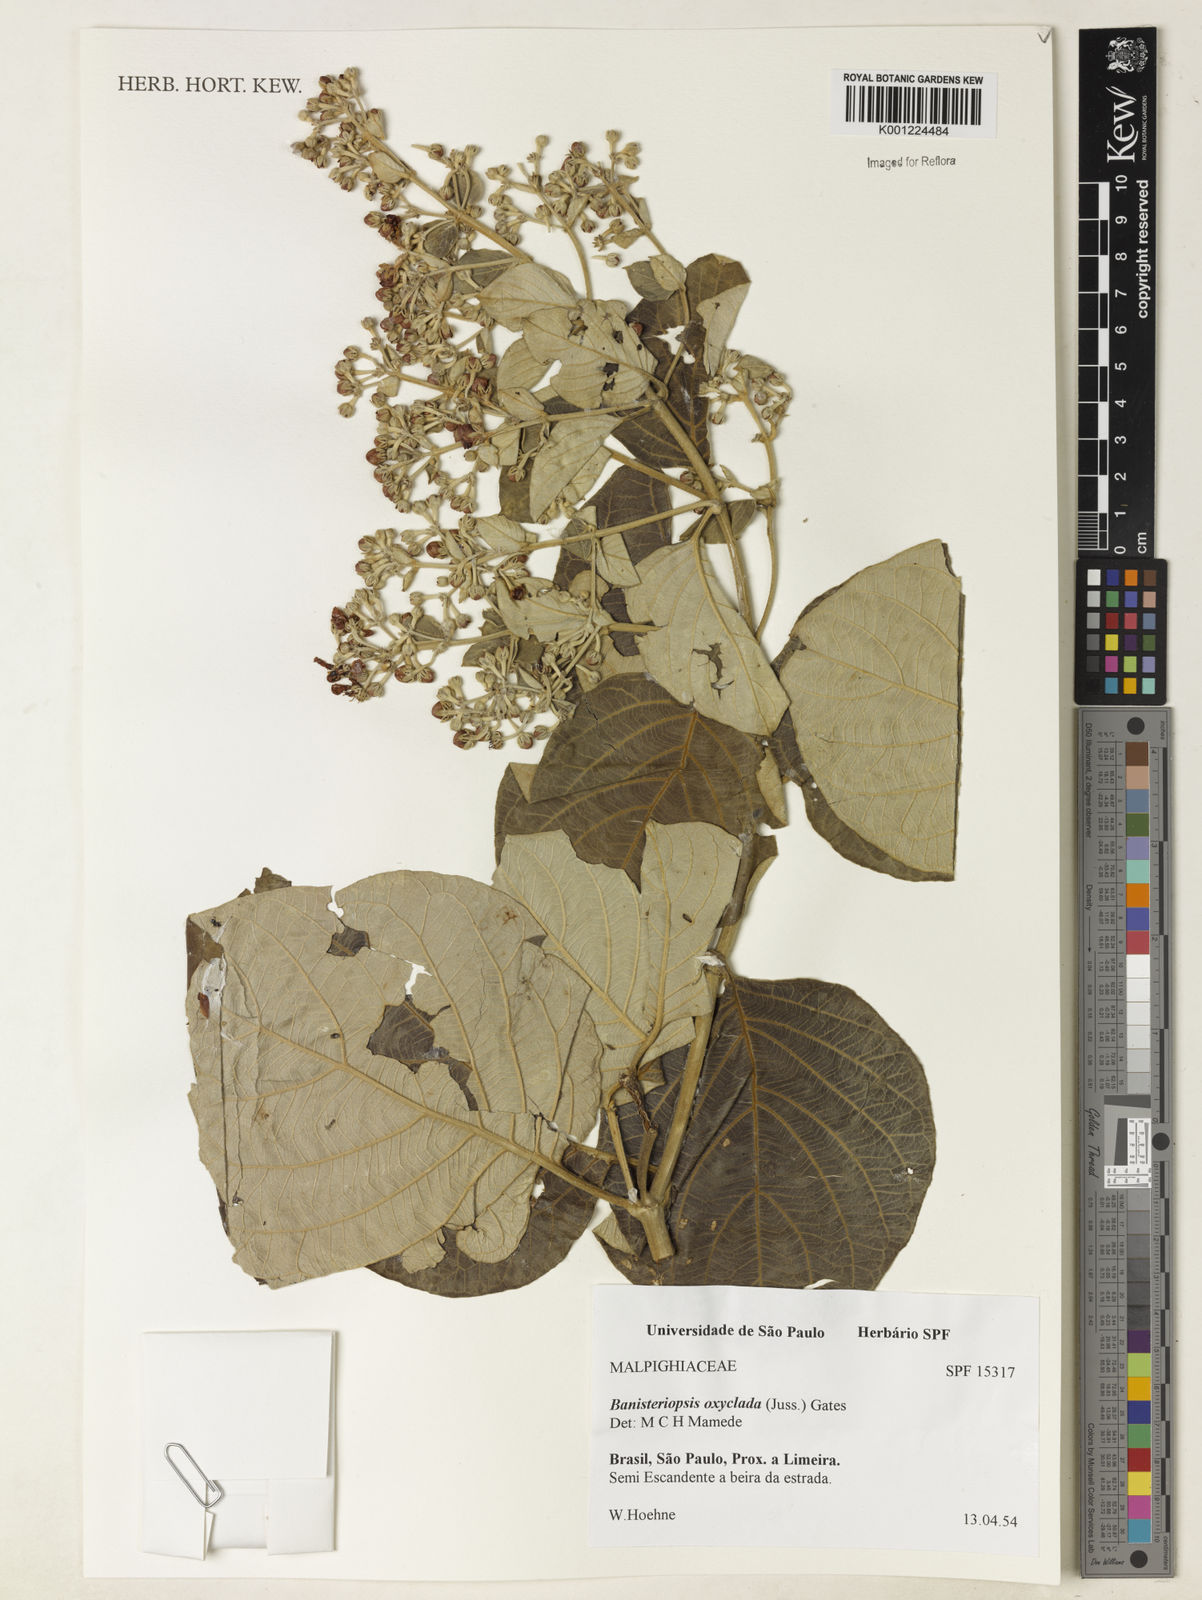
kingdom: Plantae
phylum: Tracheophyta
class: Magnoliopsida
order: Malpighiales
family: Malpighiaceae
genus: Banisteriopsis
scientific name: Banisteriopsis oxyclada
